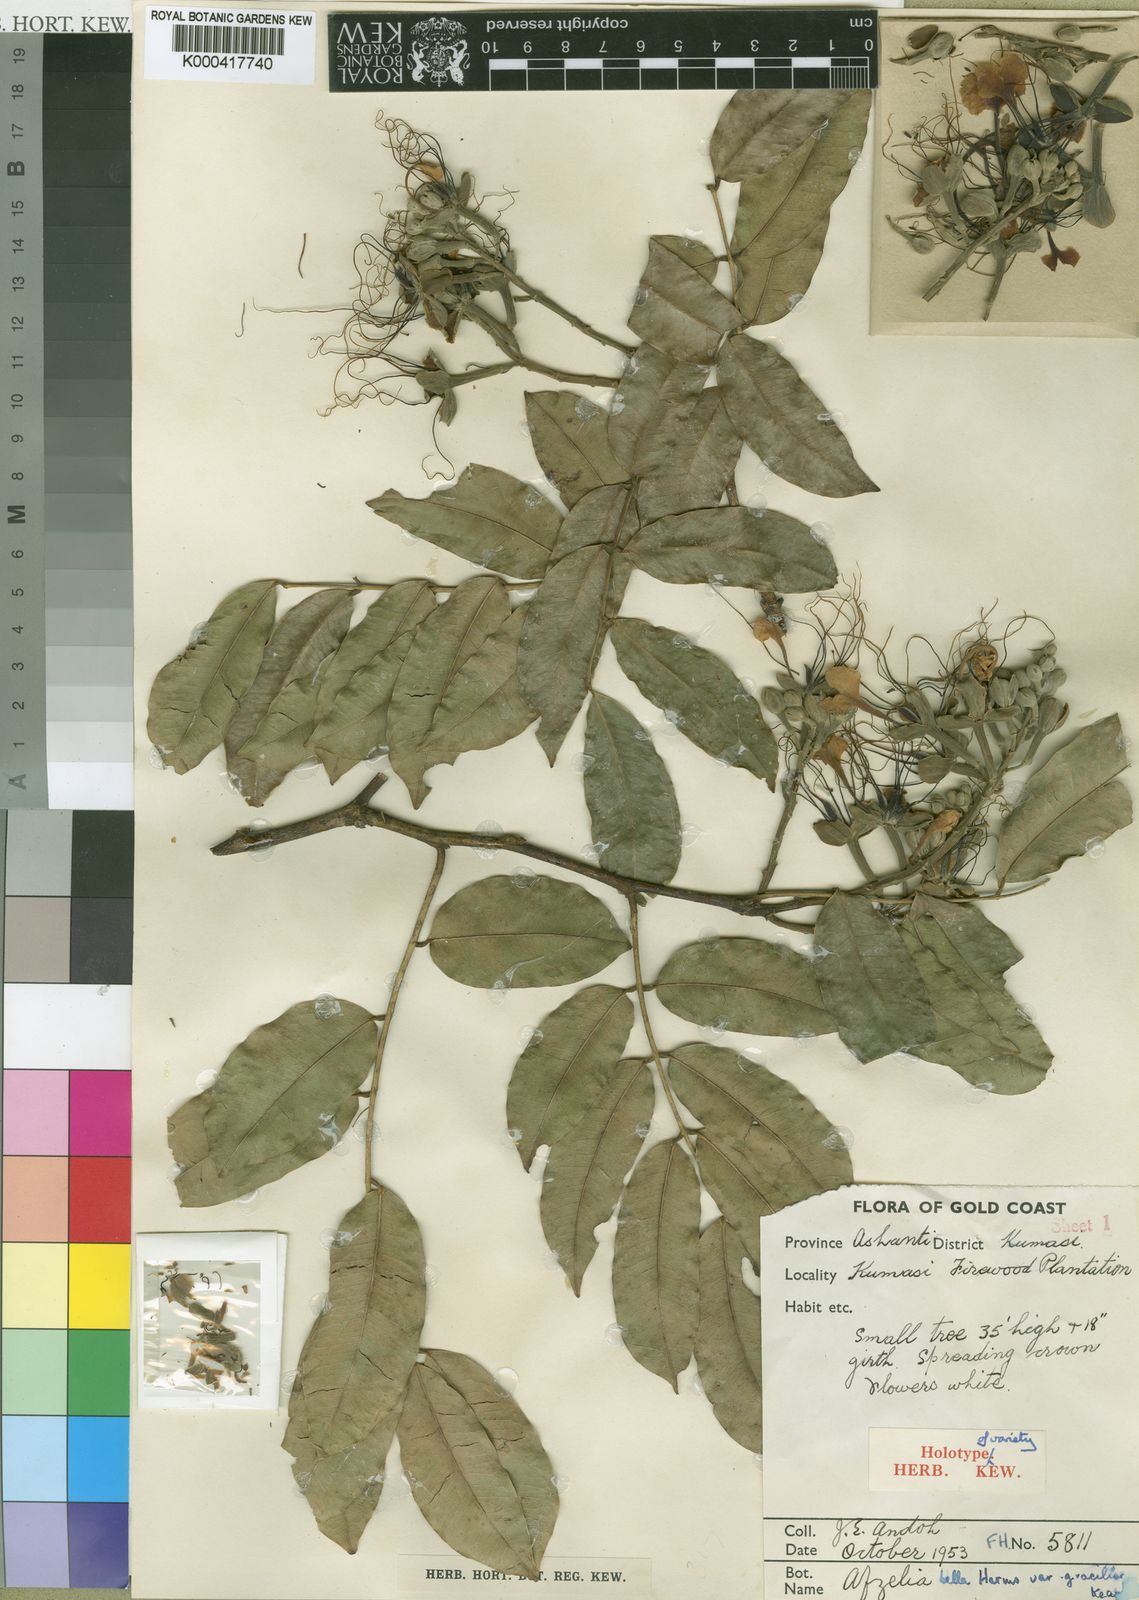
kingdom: Plantae
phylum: Tracheophyta
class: Magnoliopsida
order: Fabales
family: Fabaceae
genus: Afzelia
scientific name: Afzelia bella
